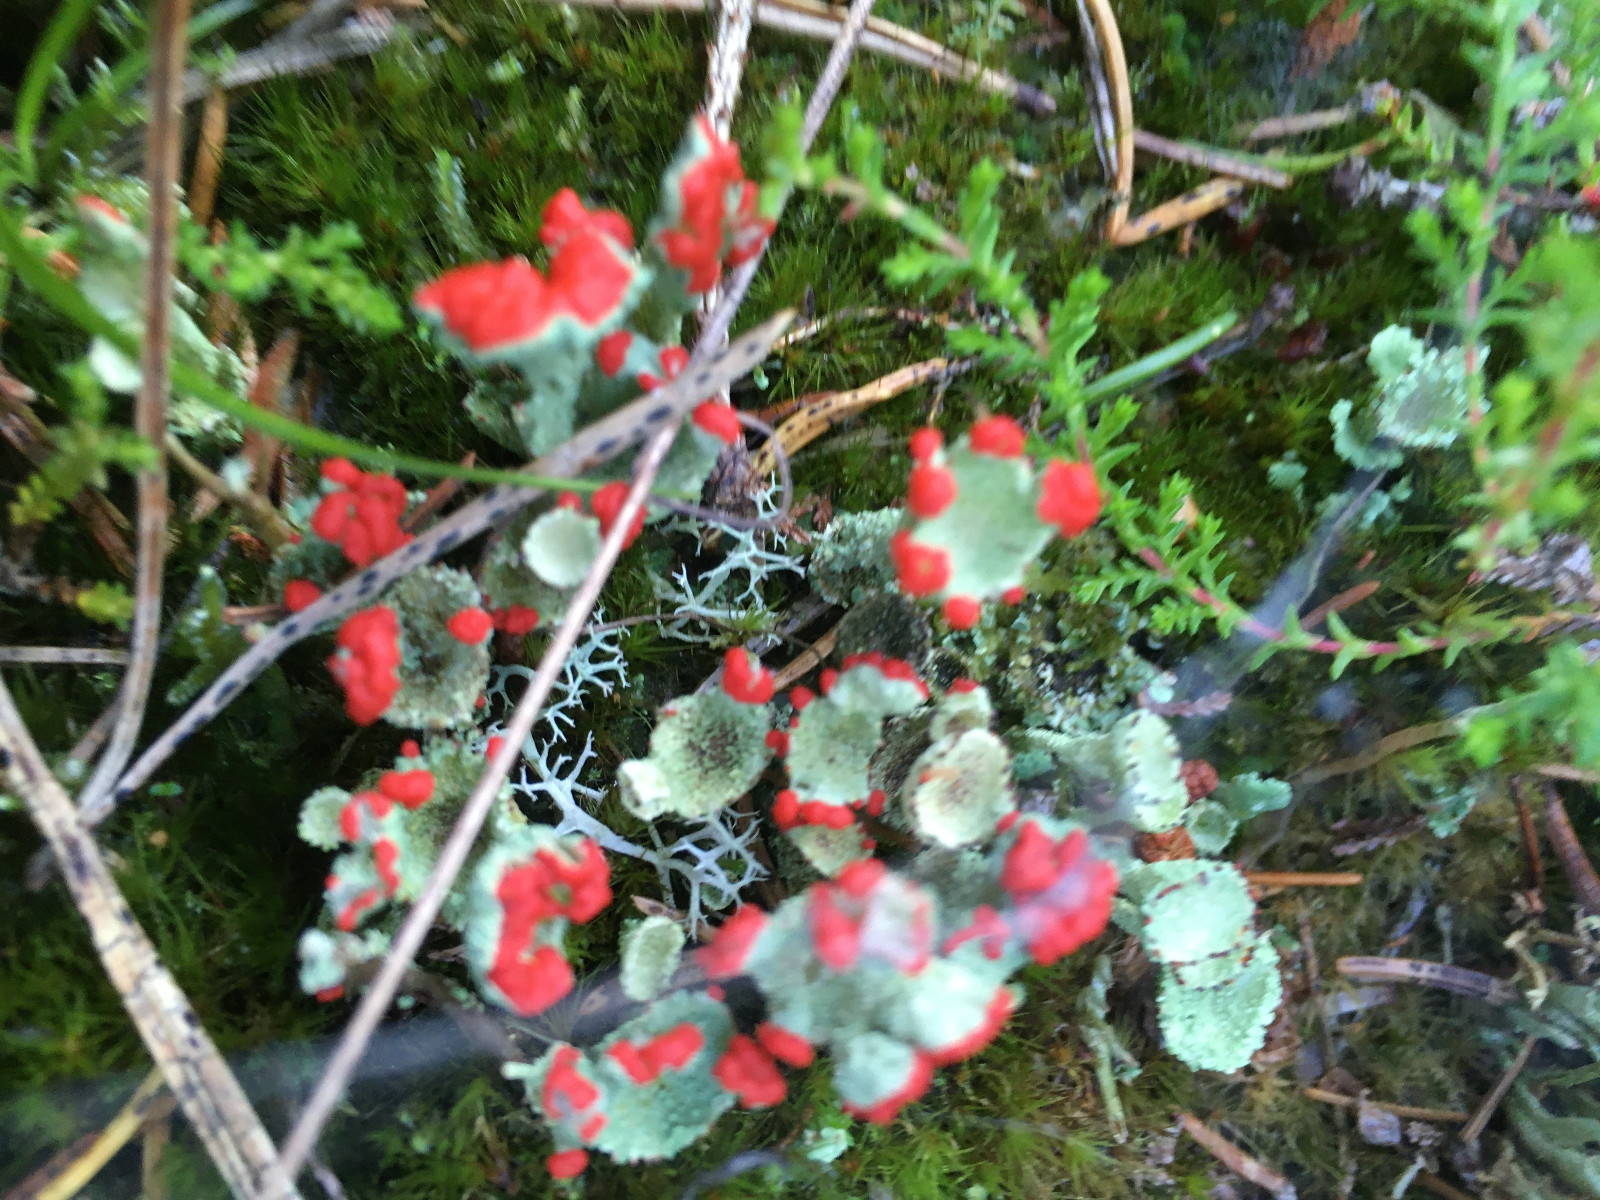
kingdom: Fungi
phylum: Ascomycota
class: Lecanoromycetes
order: Lecanorales
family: Cladoniaceae
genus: Cladonia
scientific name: Cladonia diversa
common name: rød bægerlav
